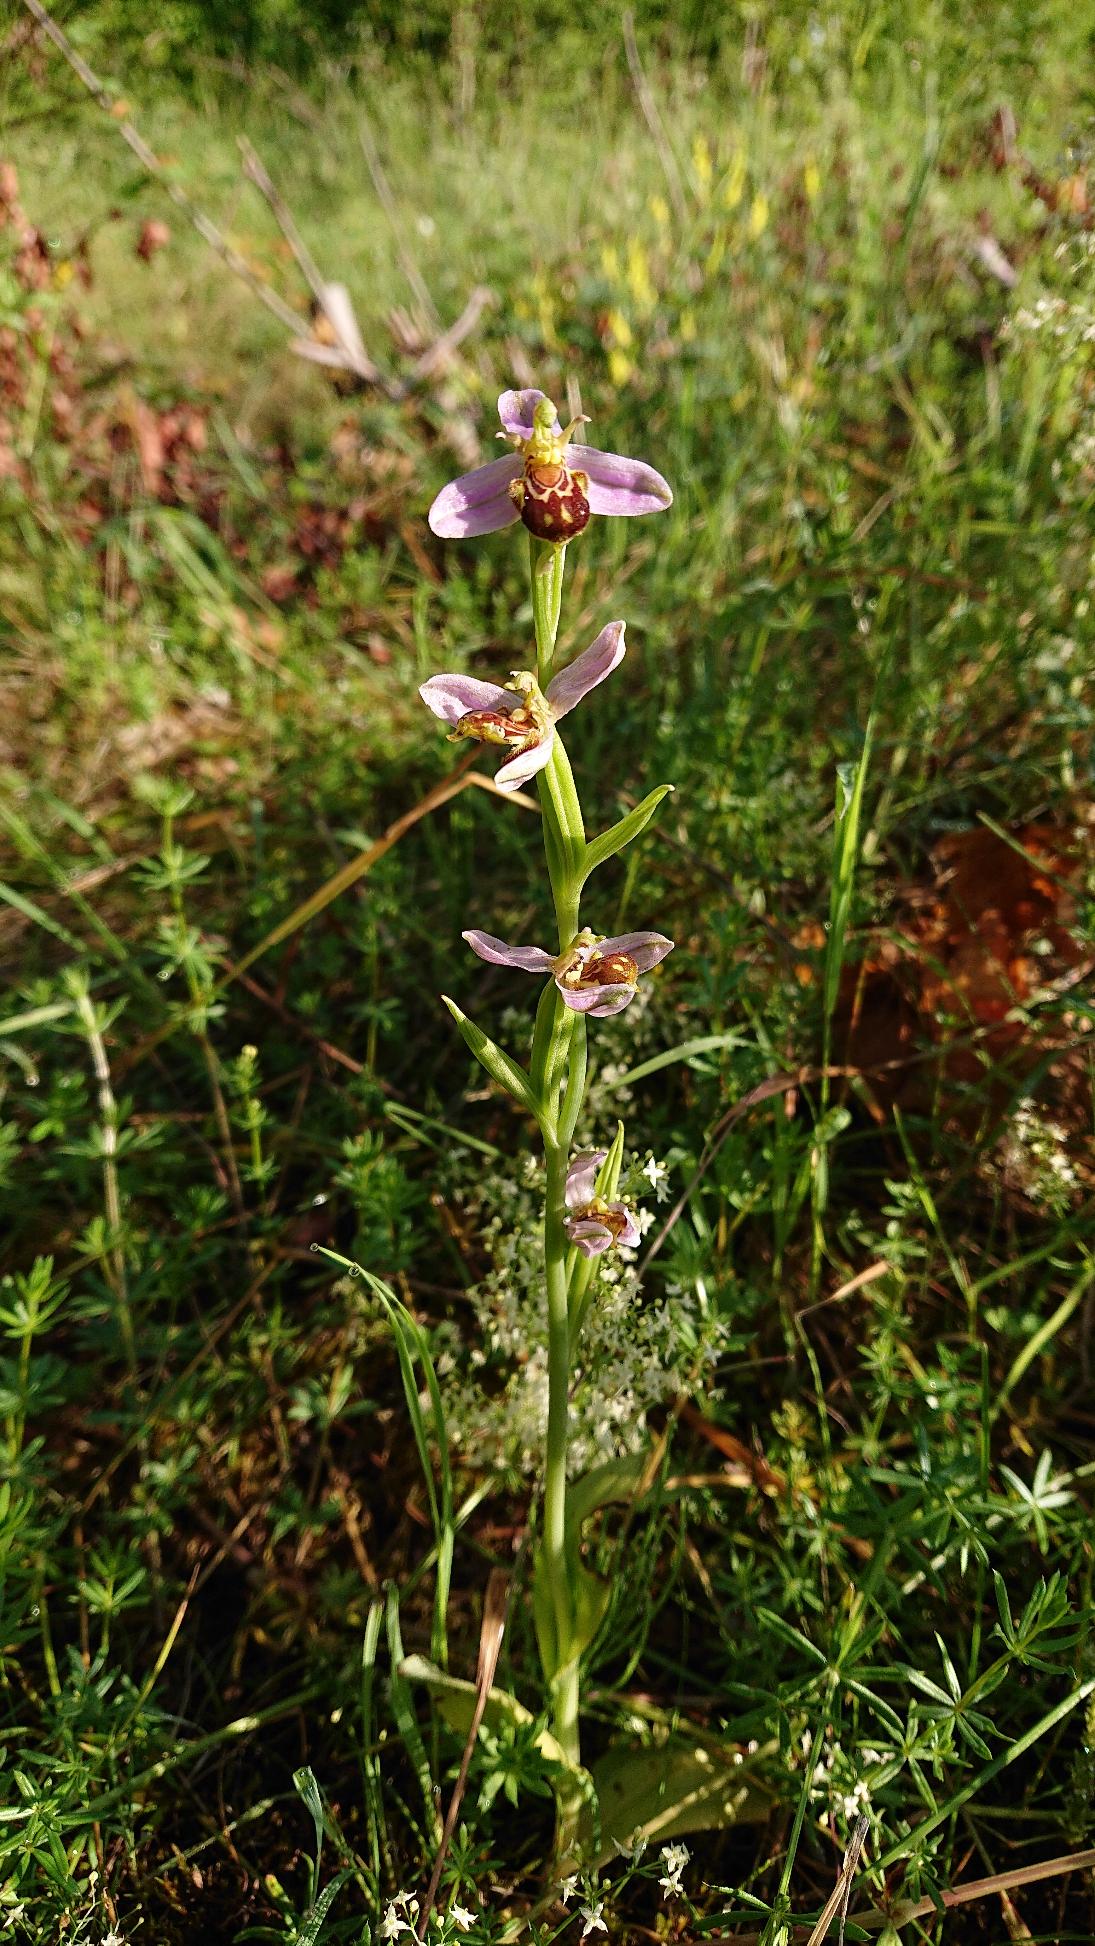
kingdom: Plantae
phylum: Tracheophyta
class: Liliopsida
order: Asparagales
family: Orchidaceae
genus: Ophrys
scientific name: Ophrys apifera
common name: Biblomst
